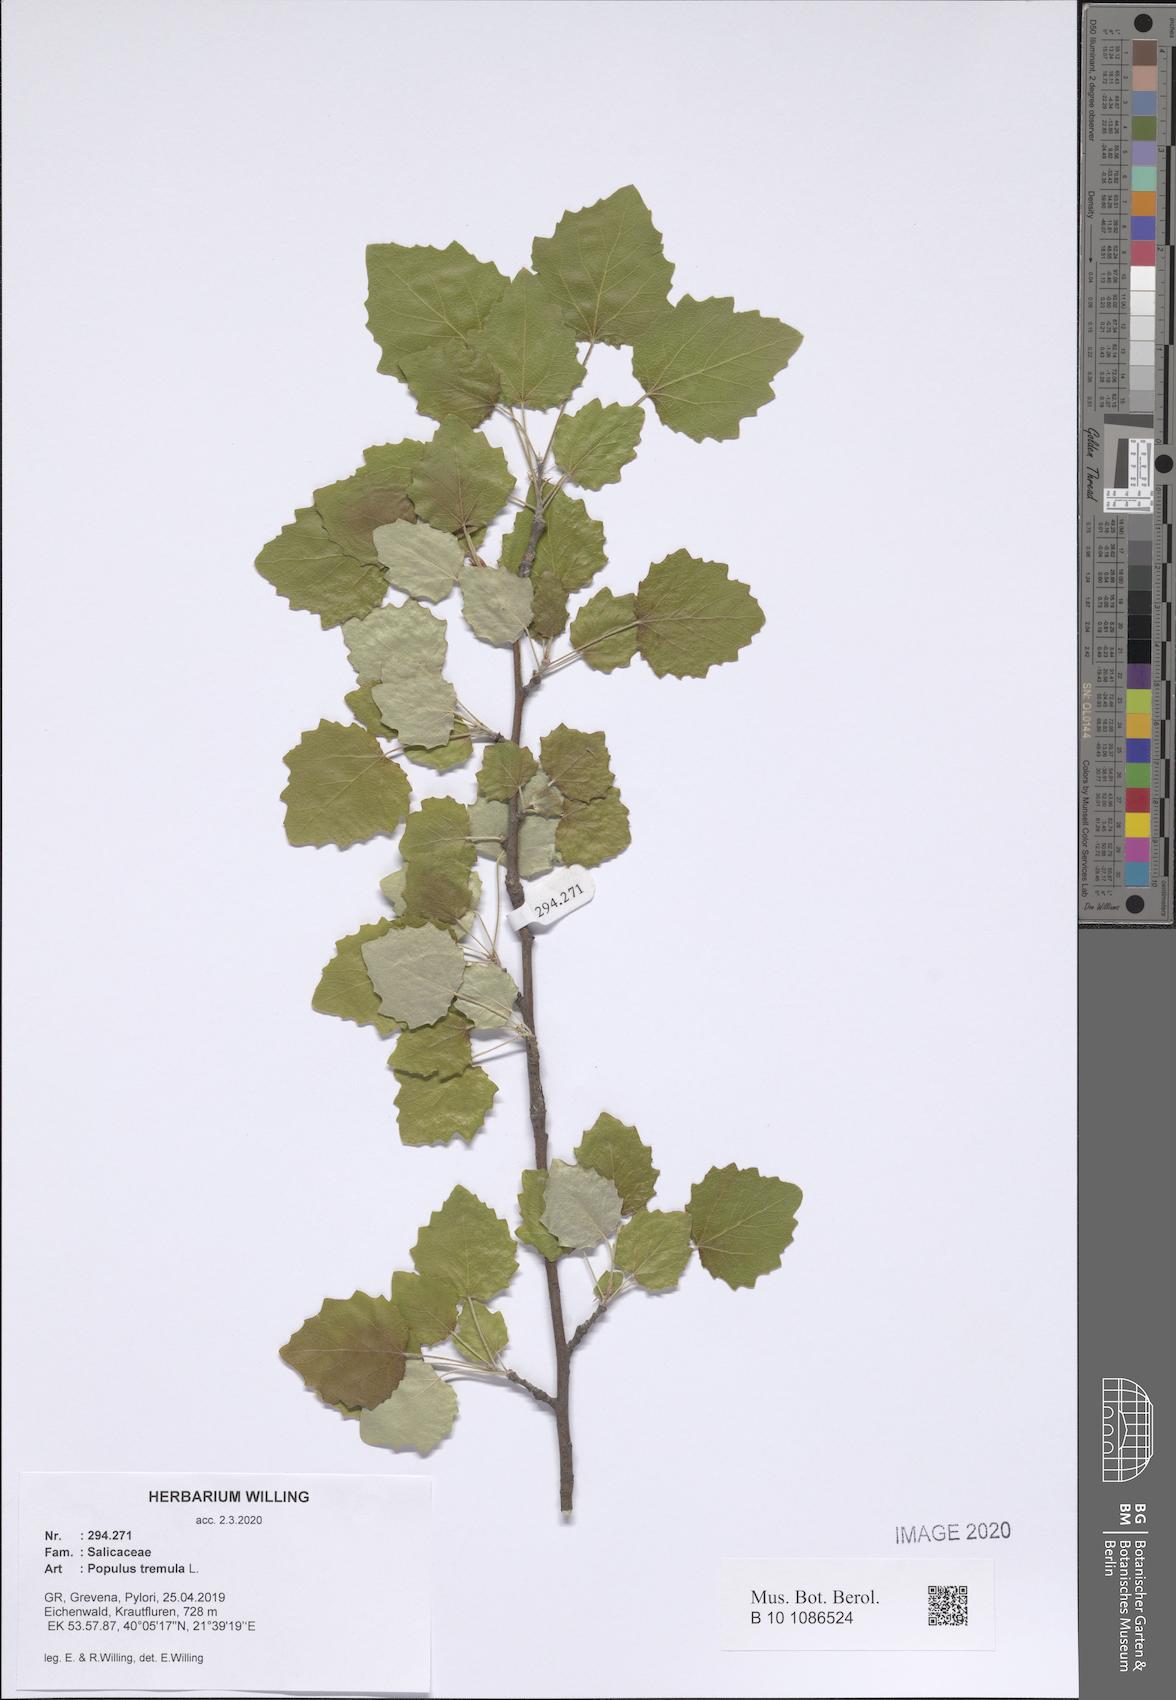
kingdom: Plantae
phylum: Tracheophyta
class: Magnoliopsida
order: Malpighiales
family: Salicaceae
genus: Populus
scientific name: Populus tremula
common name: European aspen
